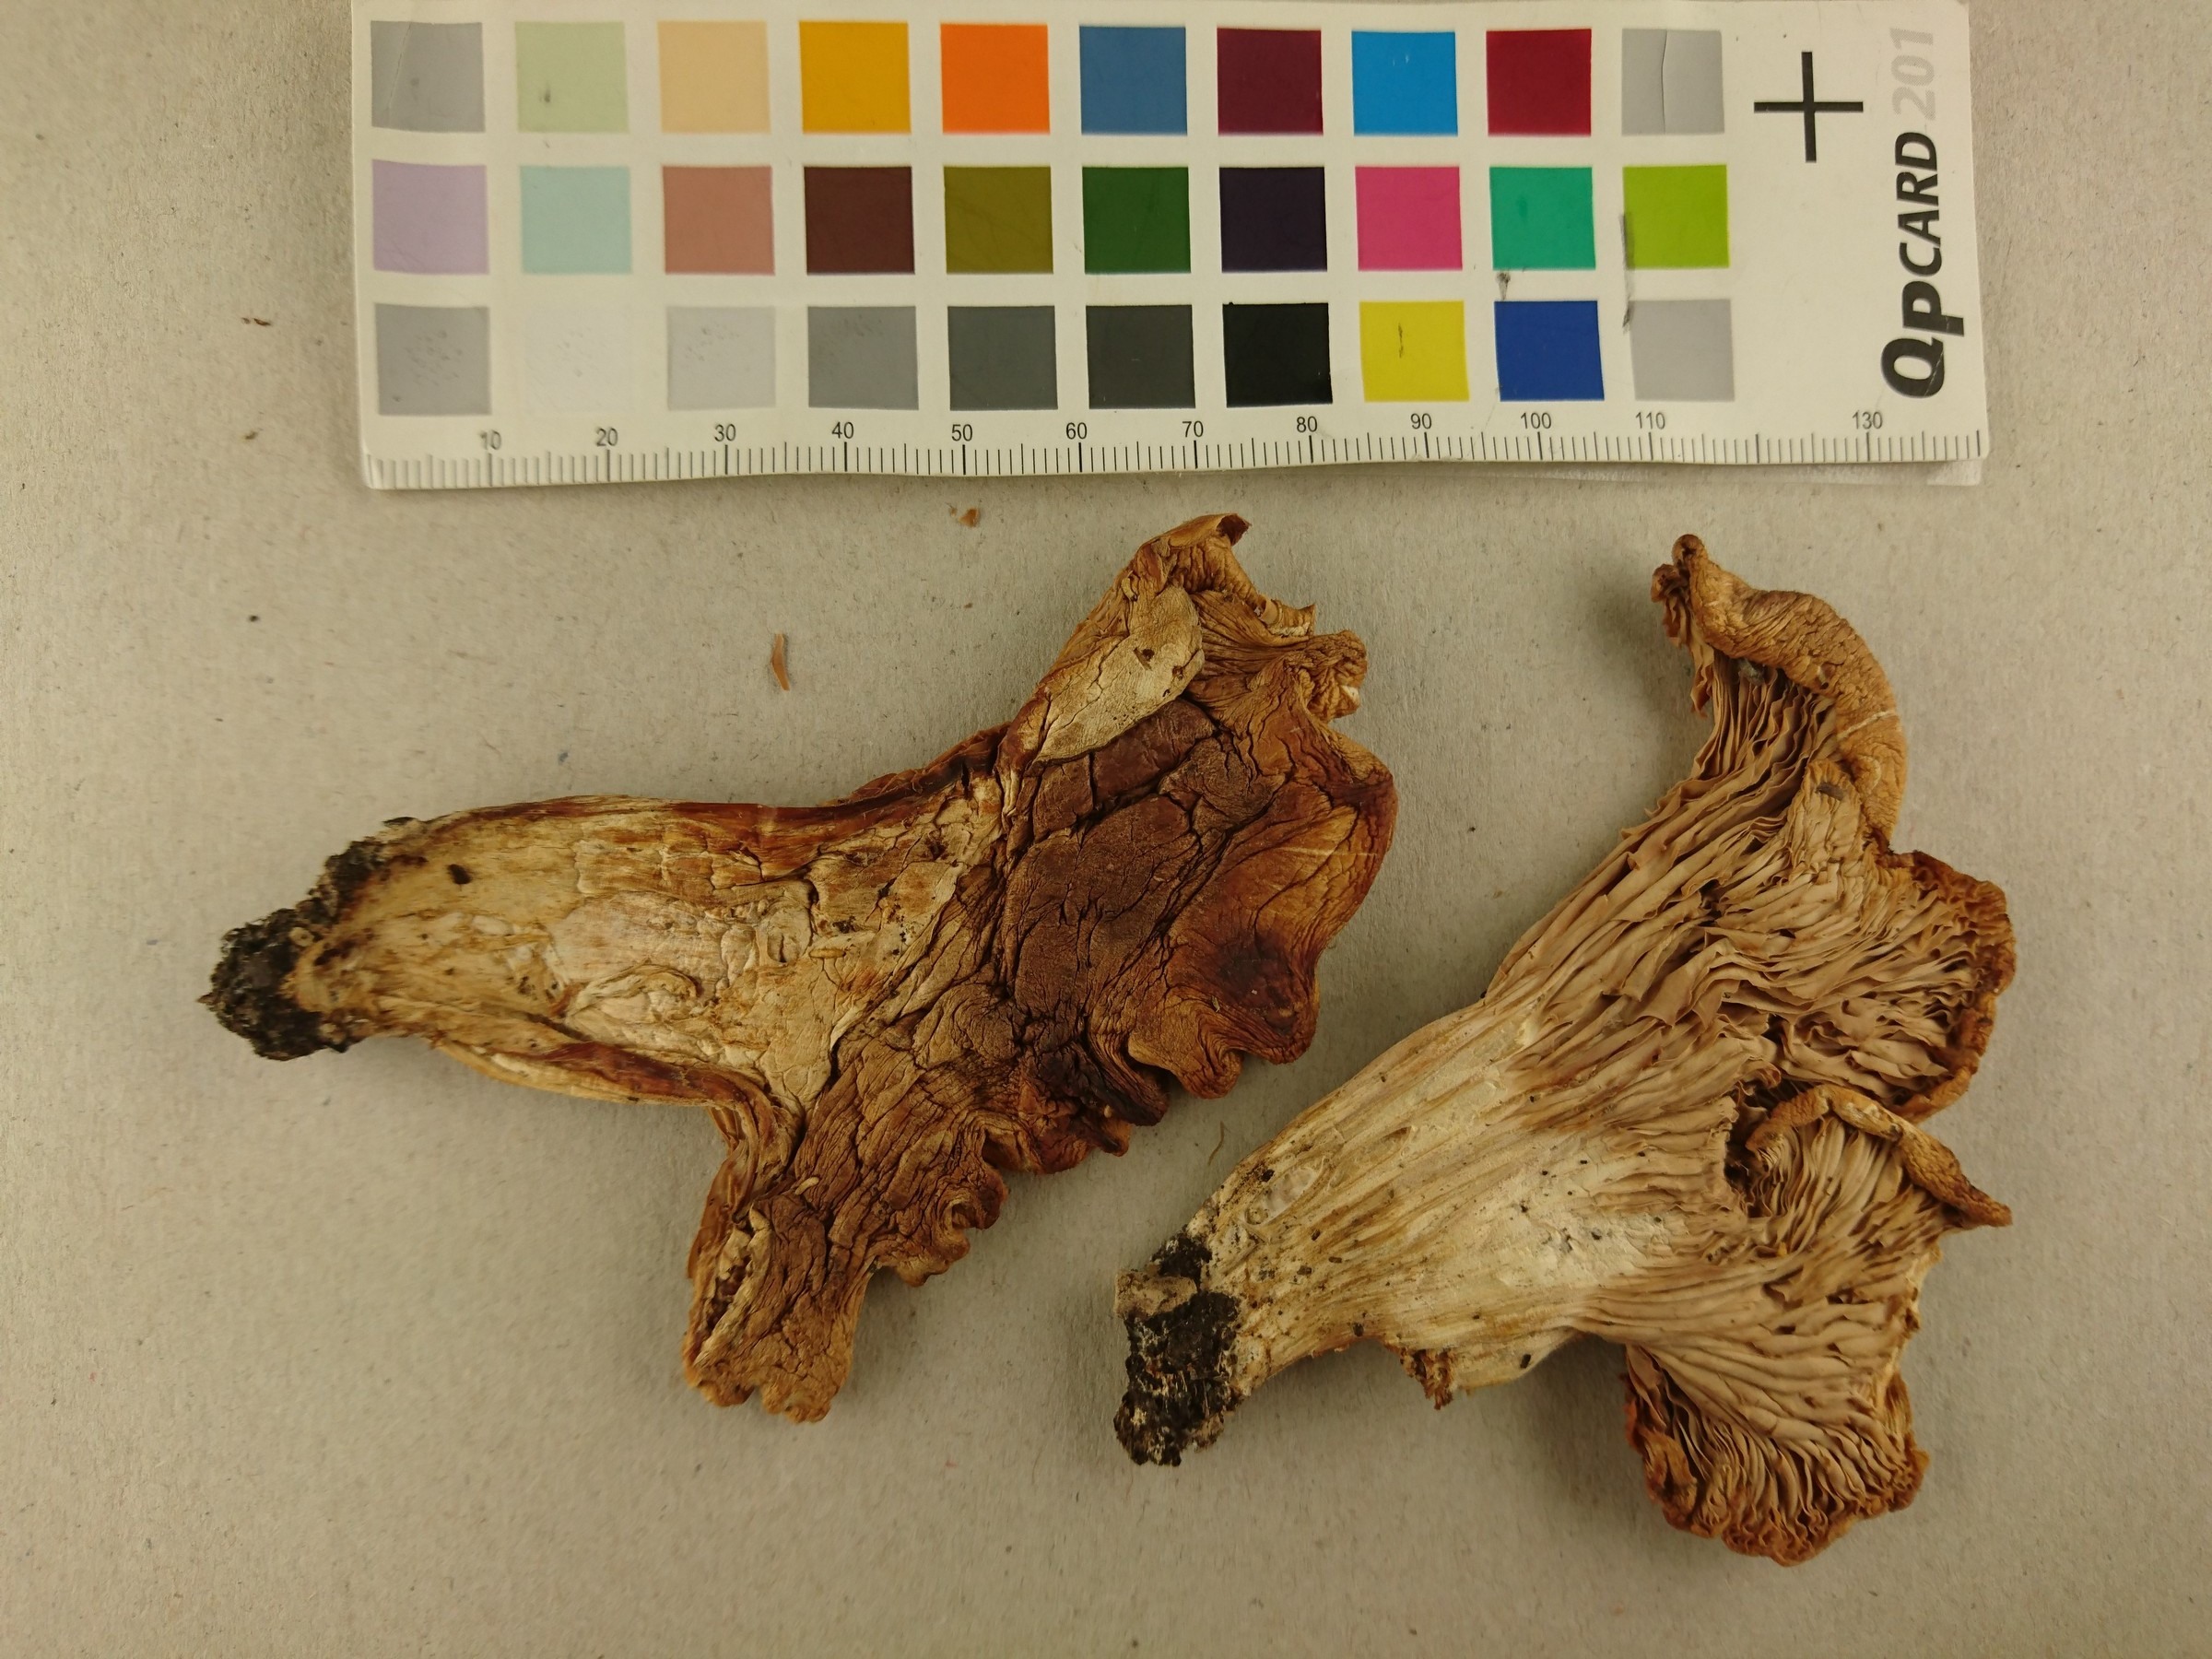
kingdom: Fungi
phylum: Basidiomycota
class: Agaricomycetes
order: Agaricales
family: Entolomataceae
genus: Clitopilus
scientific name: Clitopilus geminus
